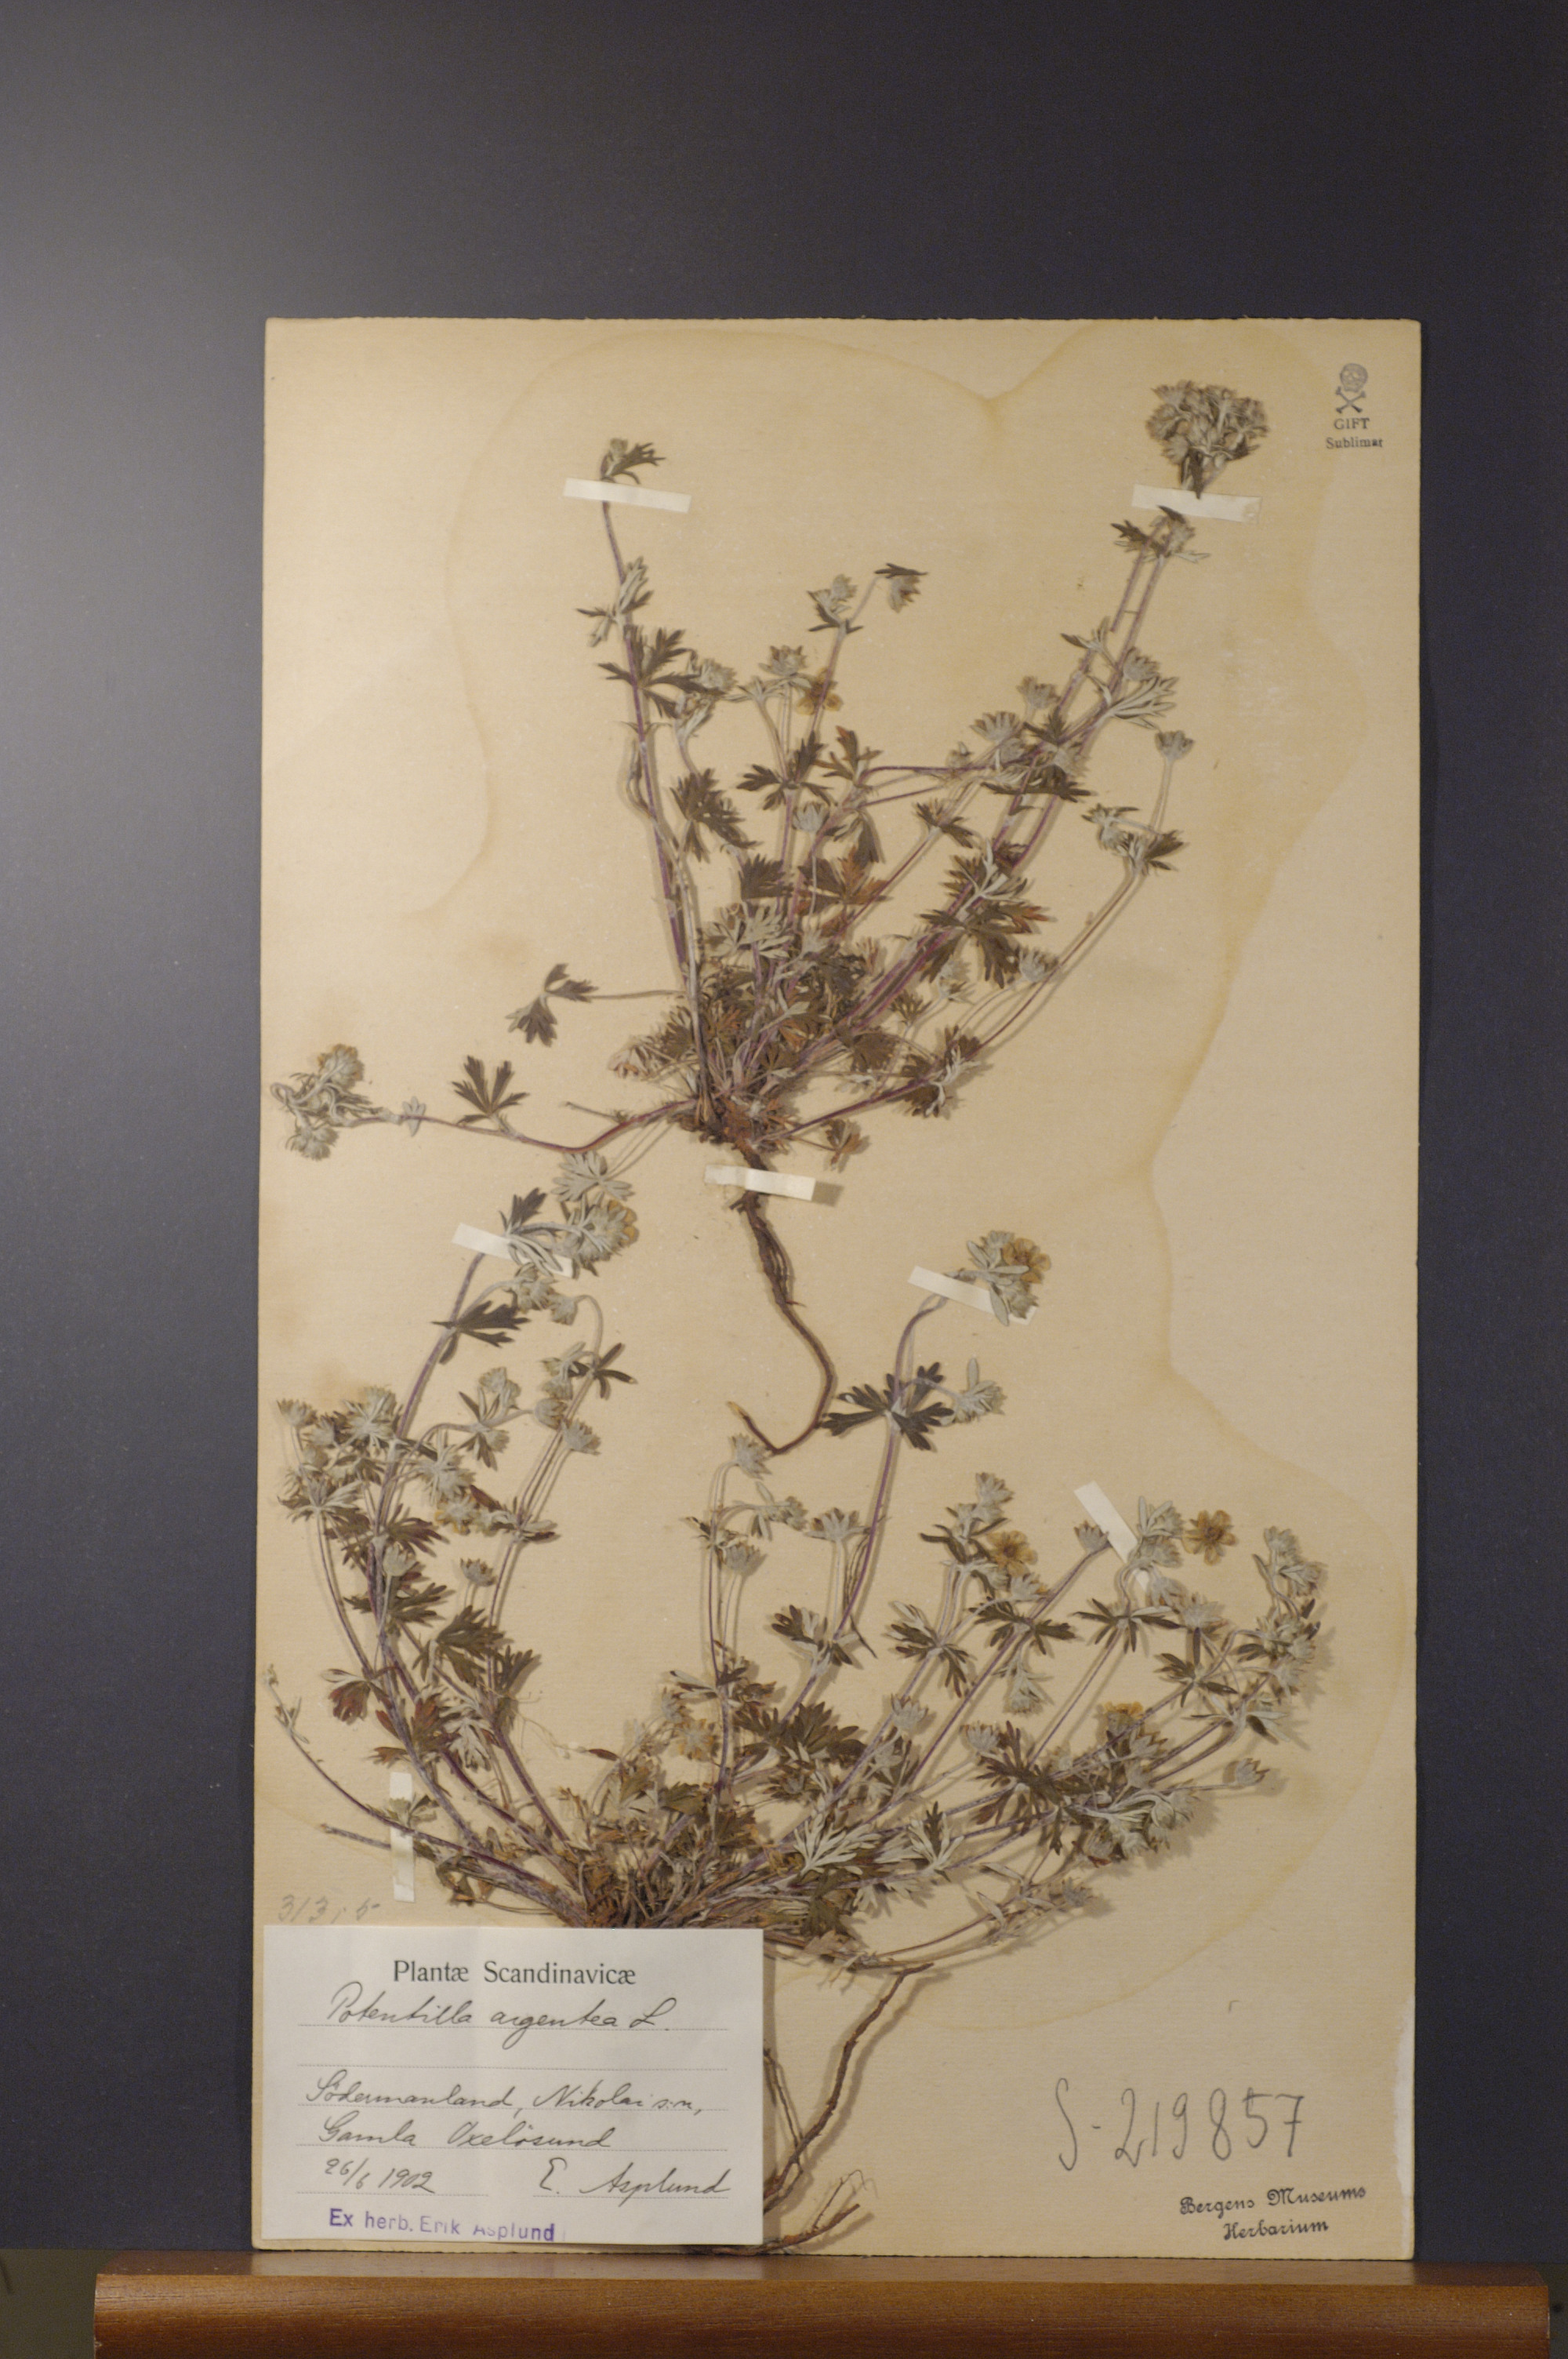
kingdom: Plantae
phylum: Tracheophyta
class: Magnoliopsida
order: Rosales
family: Rosaceae
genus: Potentilla
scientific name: Potentilla argentea
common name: Hoary cinquefoil
